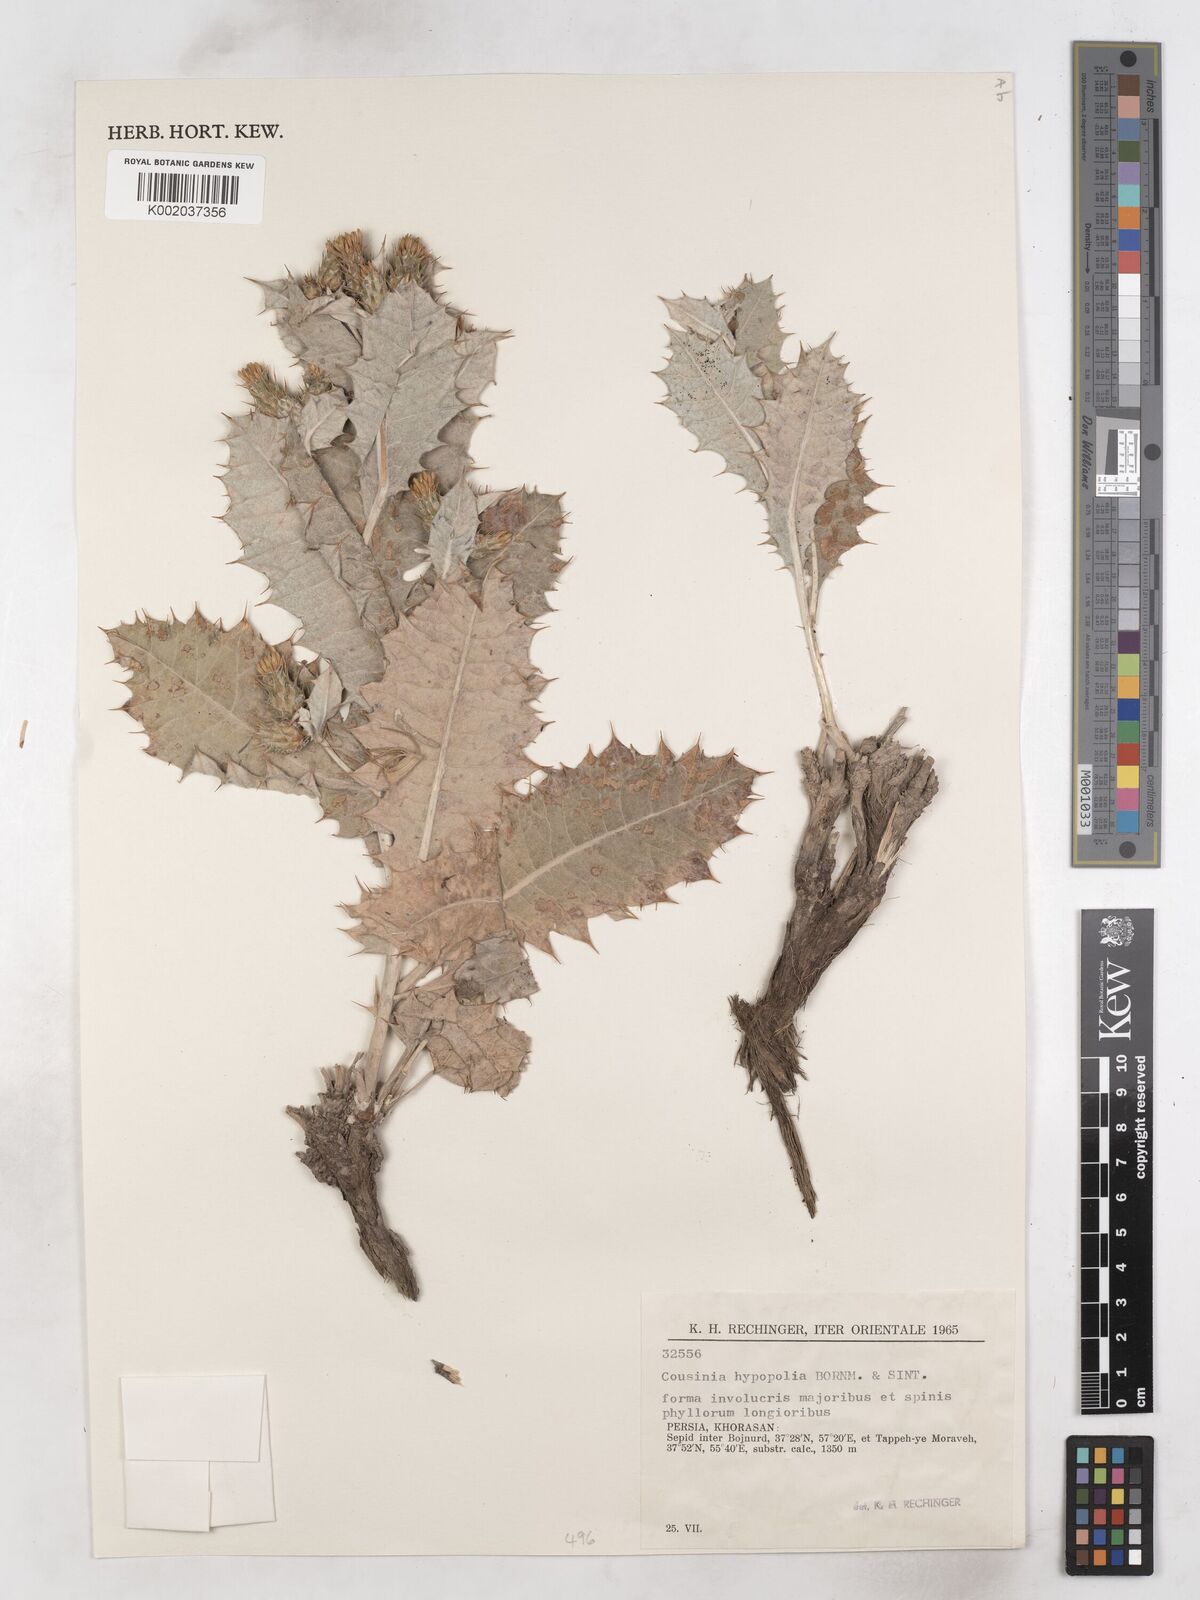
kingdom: Plantae
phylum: Tracheophyta
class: Magnoliopsida
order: Asterales
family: Asteraceae
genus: Cousinia
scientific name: Cousinia hypopolia
